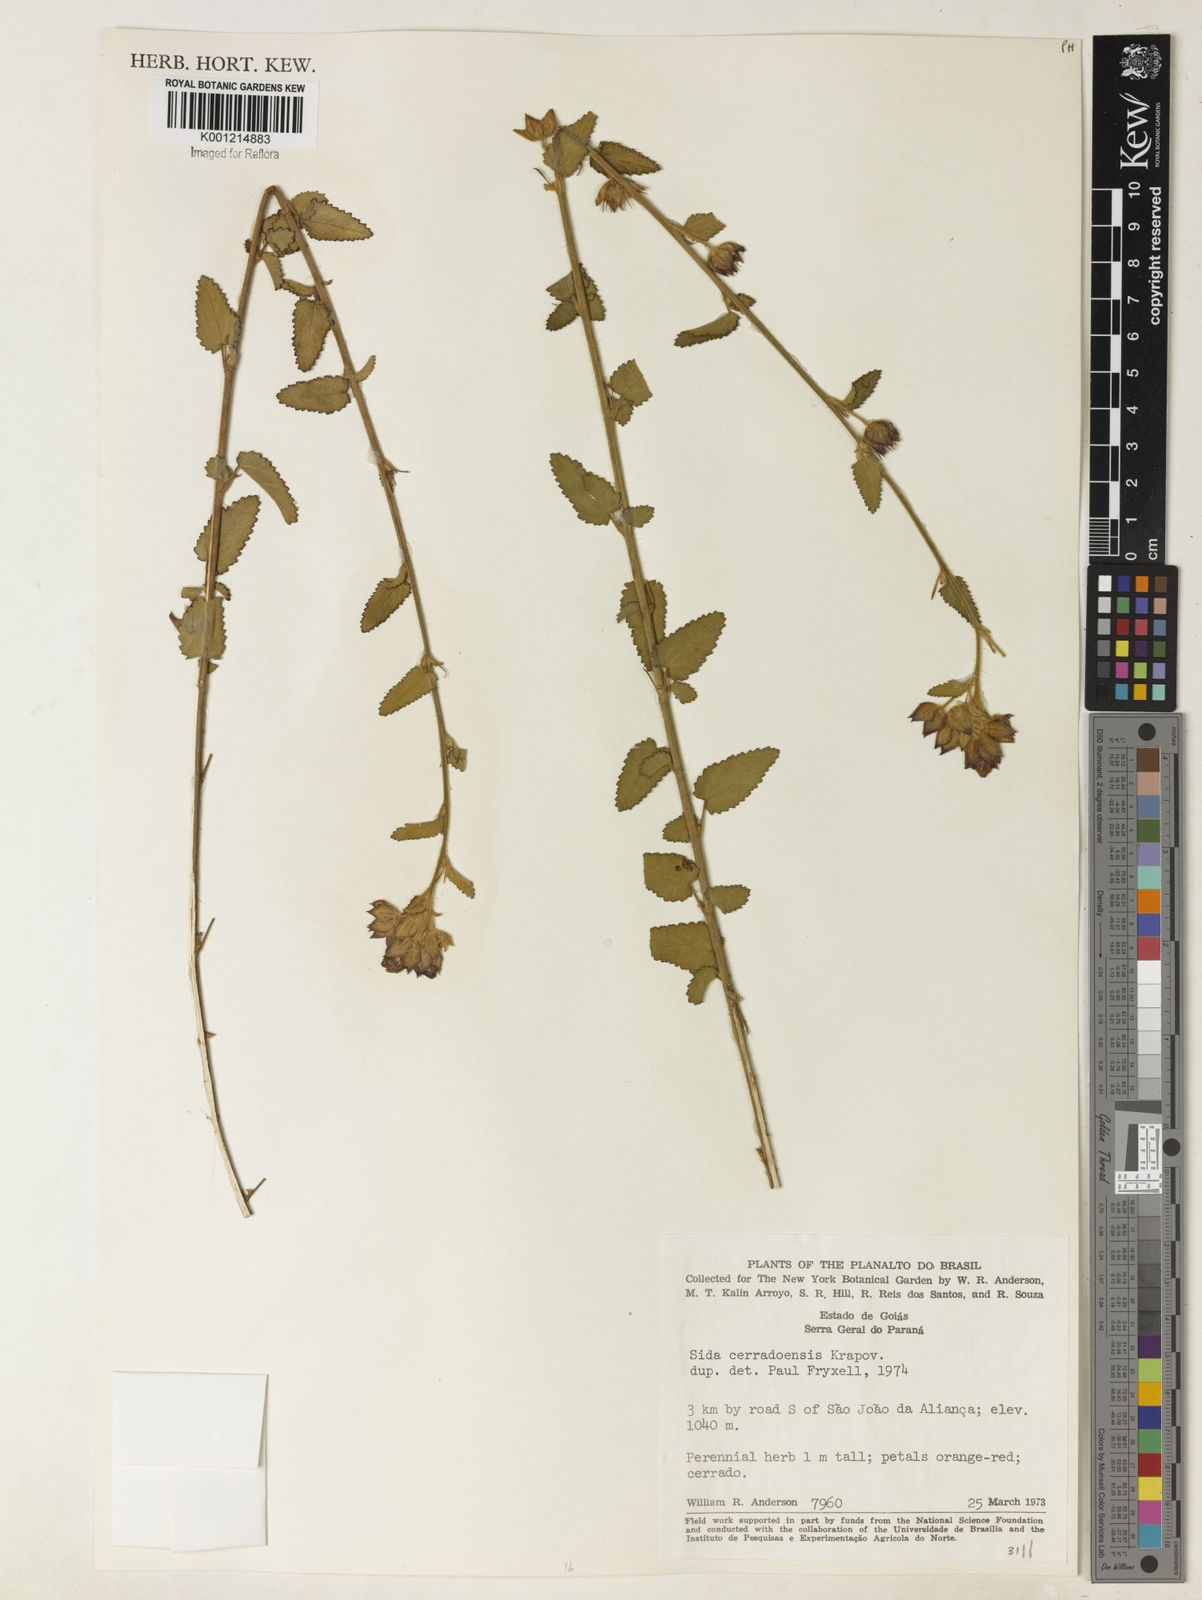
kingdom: Plantae
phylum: Tracheophyta
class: Magnoliopsida
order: Malvales
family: Malvaceae
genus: Sida
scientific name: Sida cerradoensis
